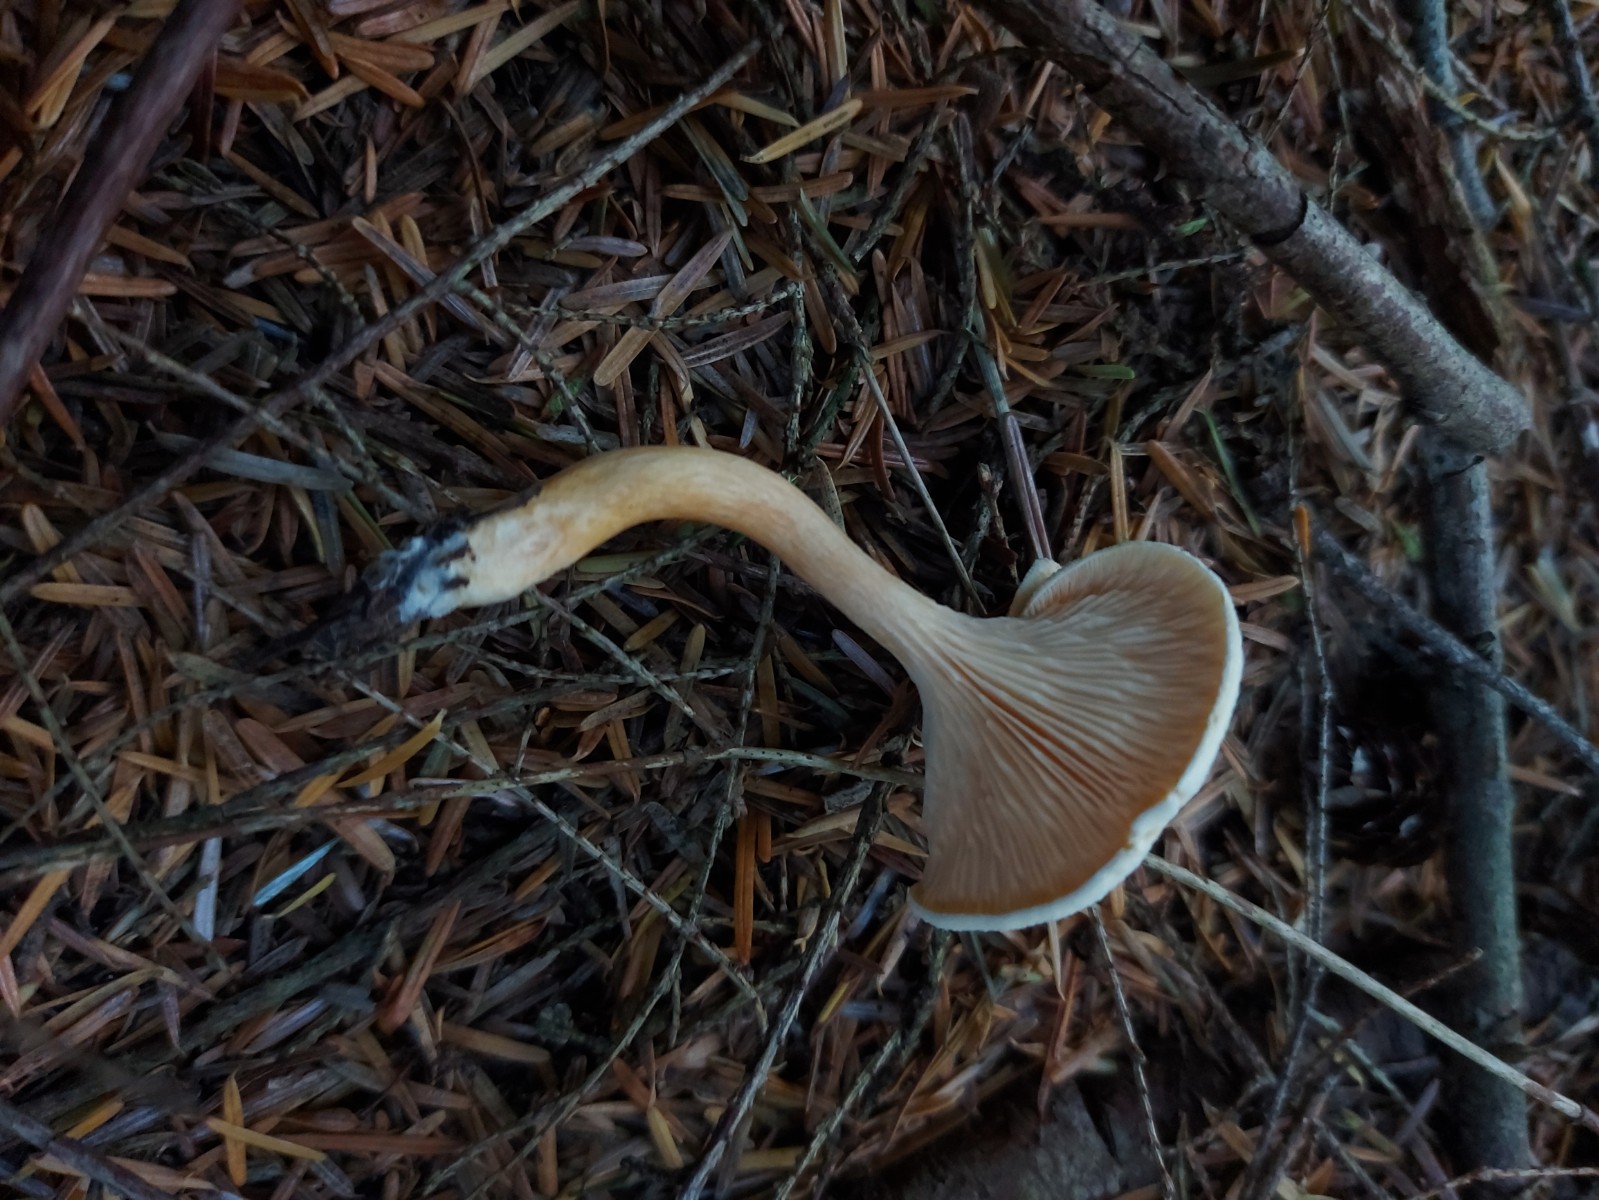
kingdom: Fungi
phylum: Basidiomycota
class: Agaricomycetes
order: Boletales
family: Hygrophoropsidaceae
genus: Hygrophoropsis
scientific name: Hygrophoropsis
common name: orangekantarel
